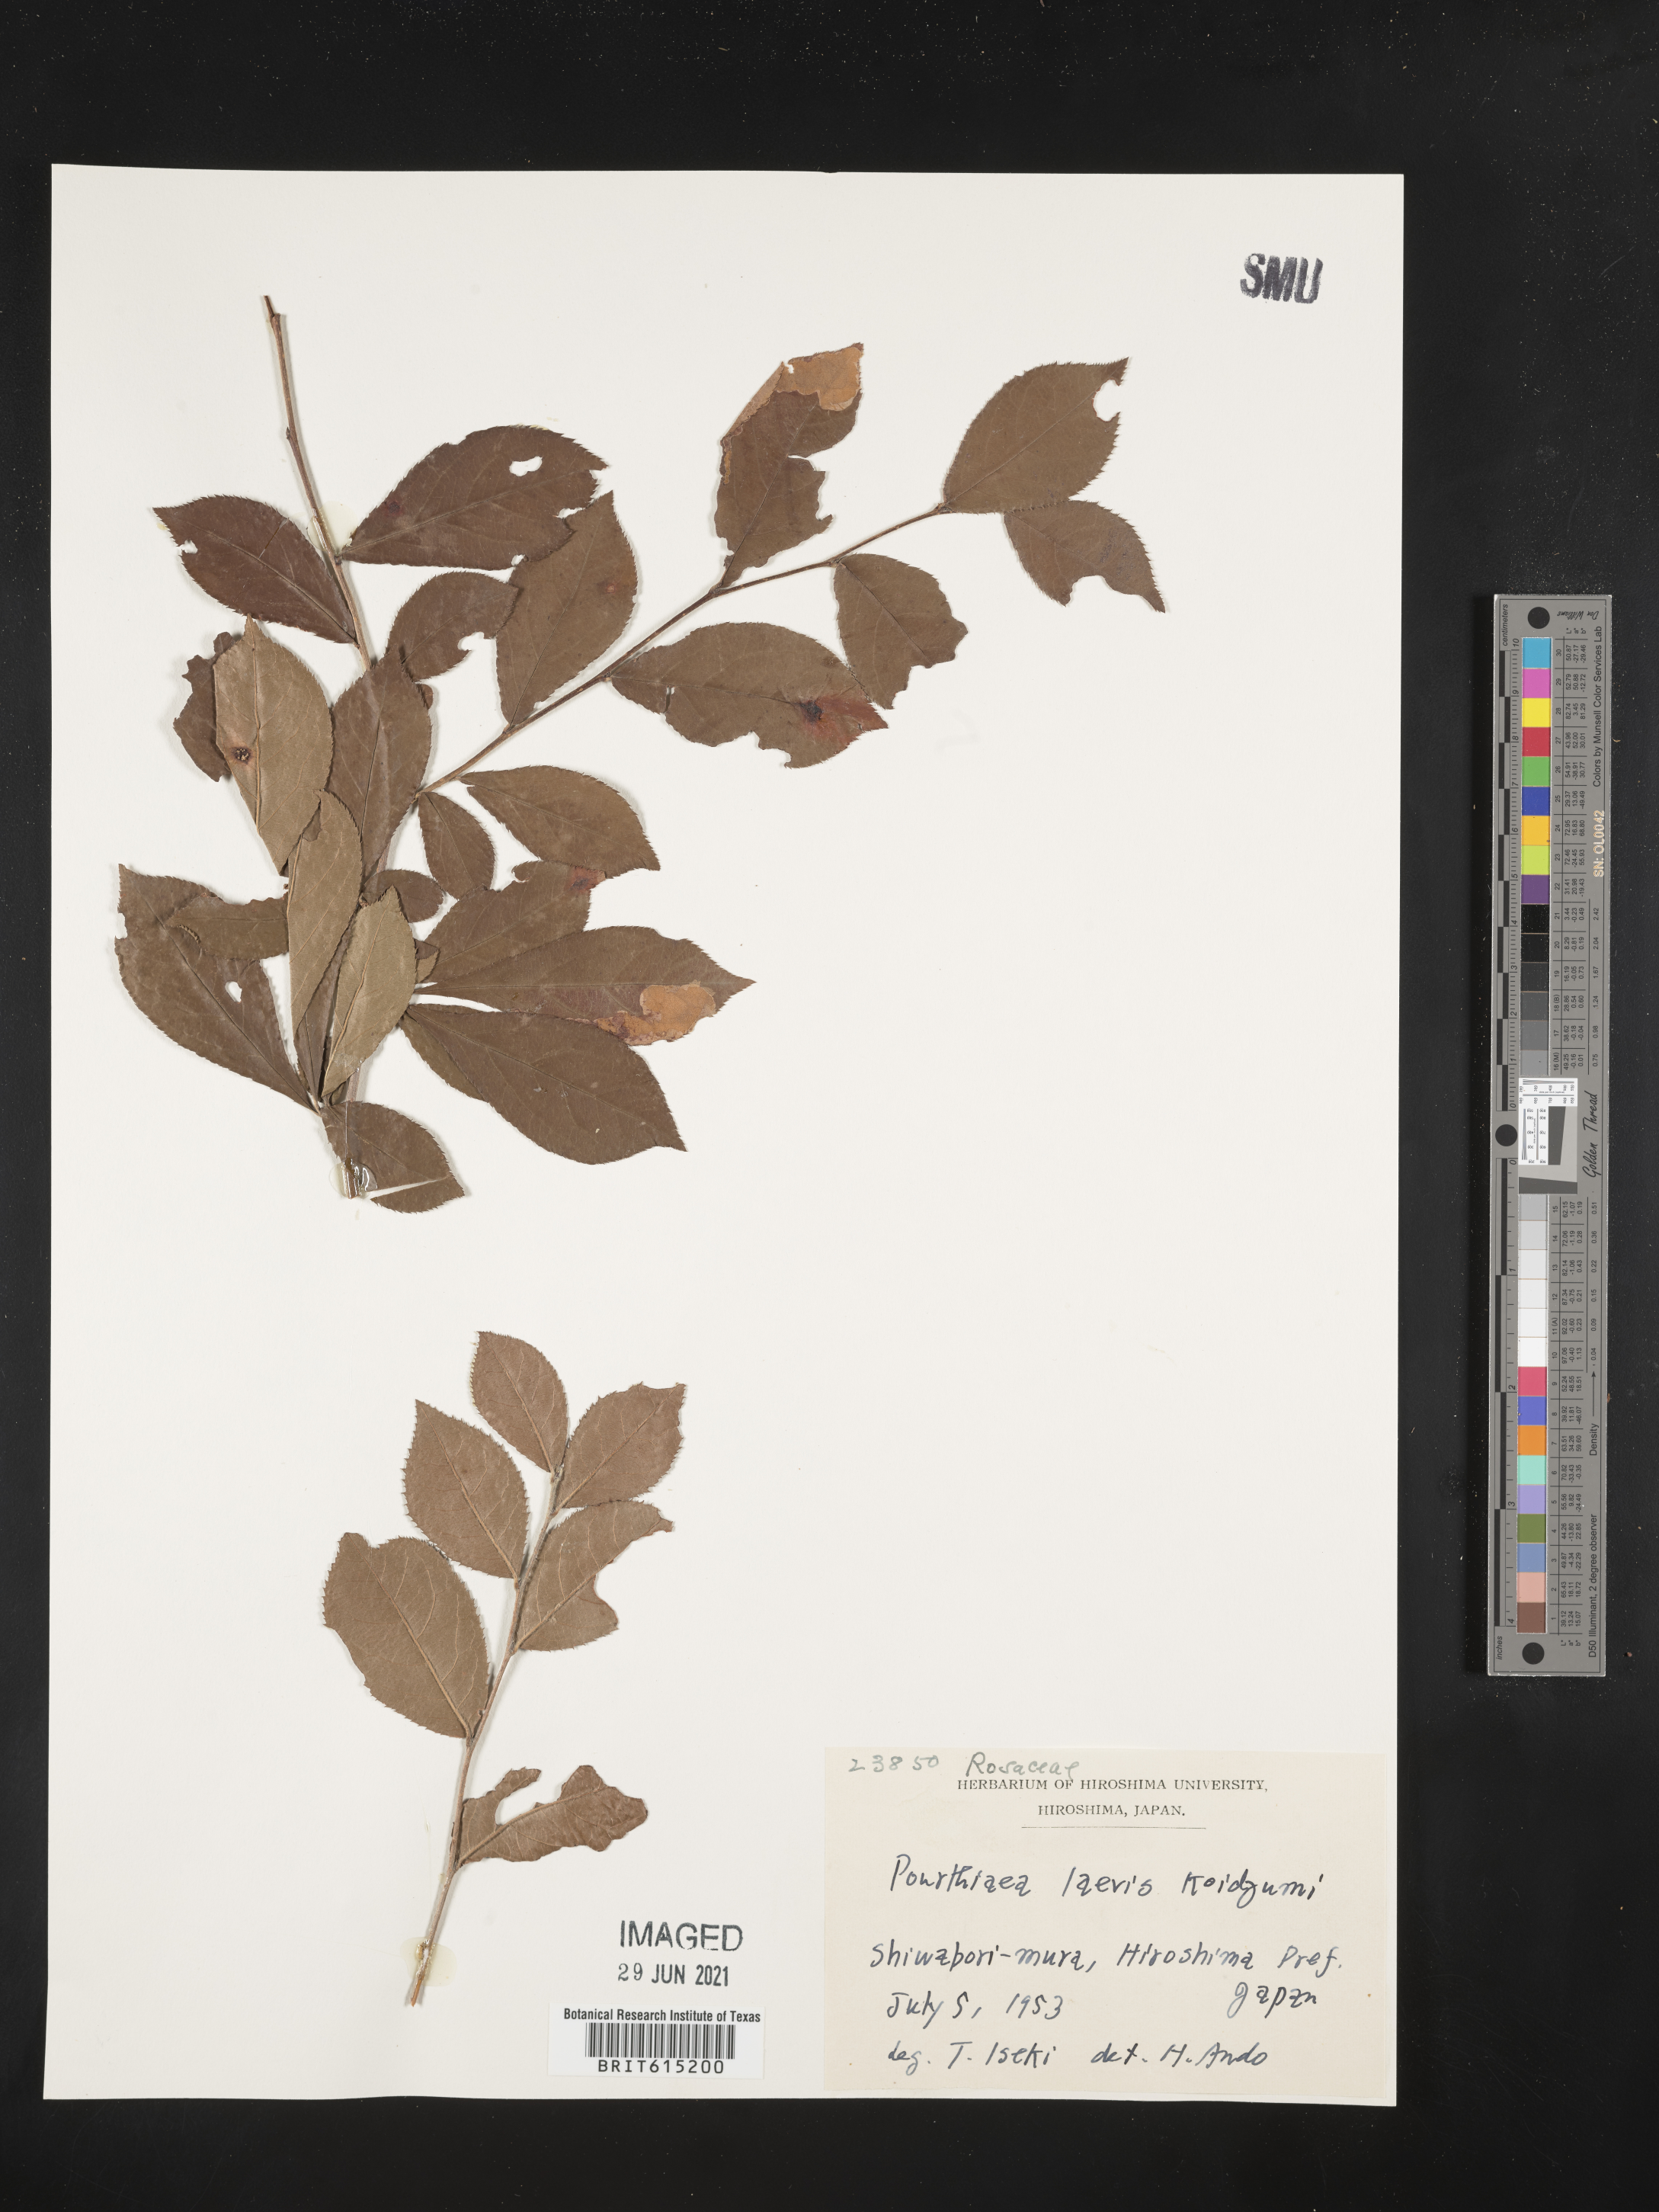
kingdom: Plantae
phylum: Tracheophyta
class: Magnoliopsida
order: Rosales
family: Rosaceae
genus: Pourthiaea
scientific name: Pourthiaea villosa
